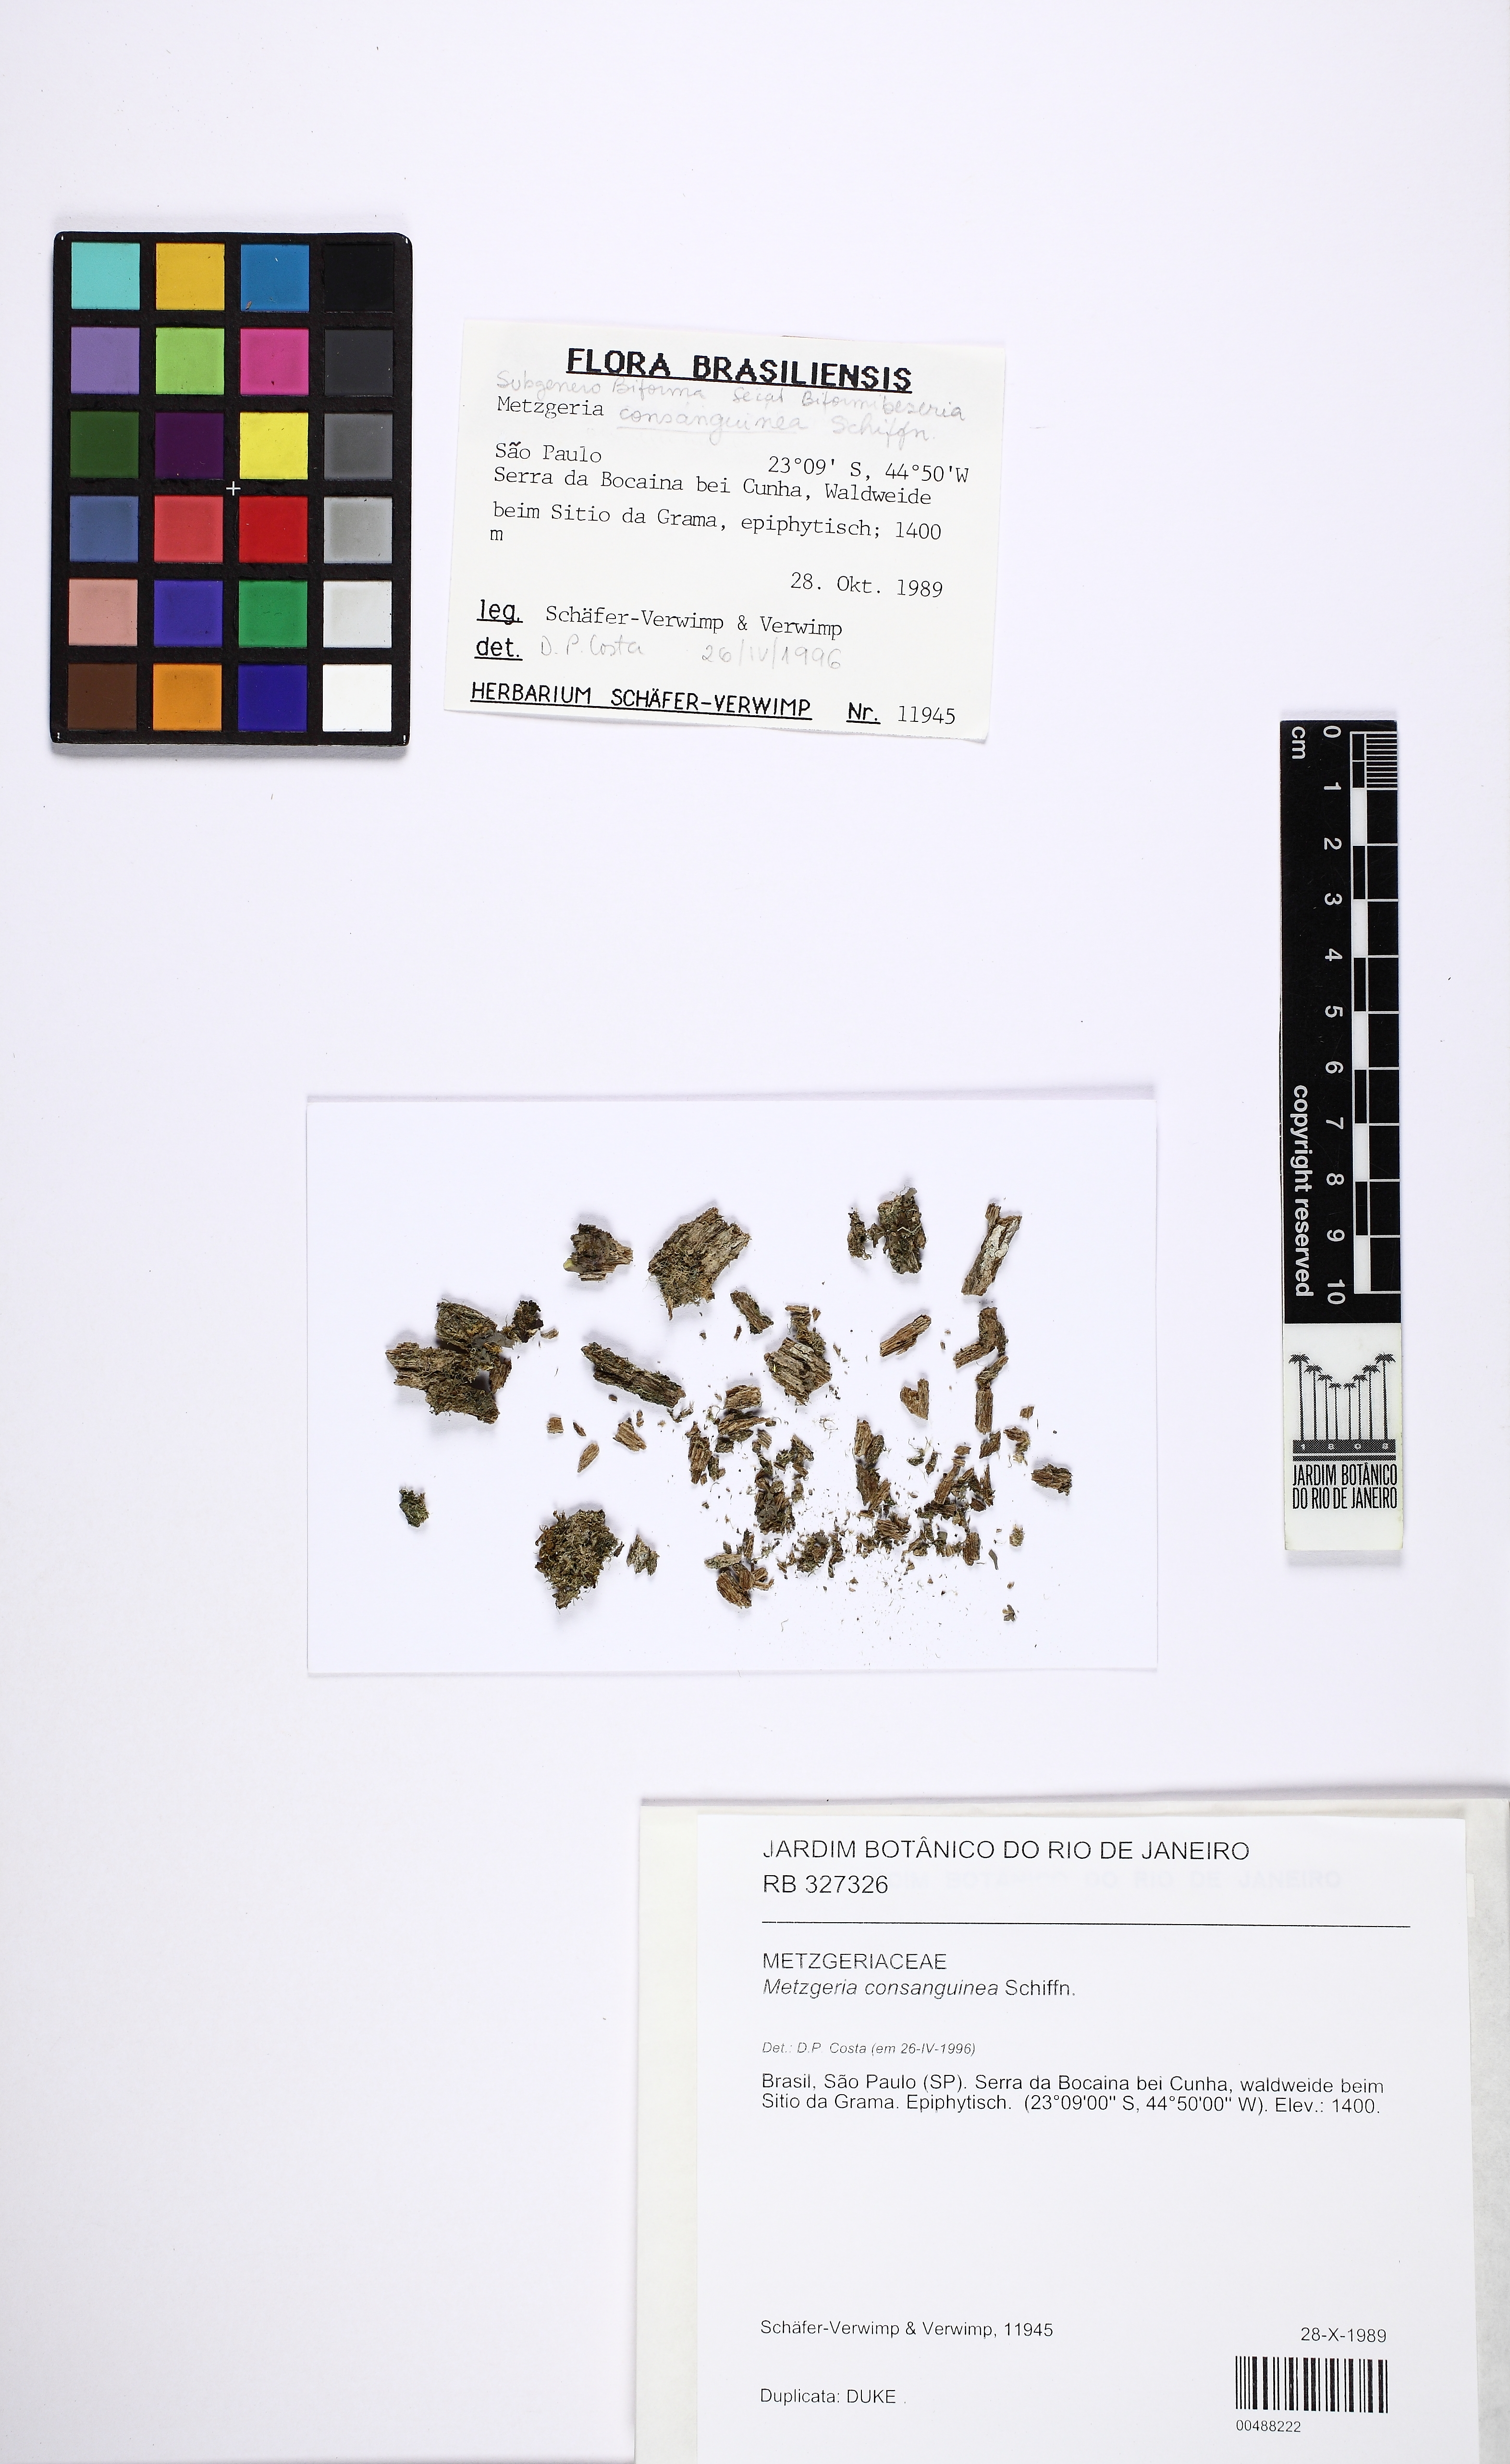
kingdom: Plantae
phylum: Marchantiophyta
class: Jungermanniopsida
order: Metzgeriales
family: Metzgeriaceae
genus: Metzgeria
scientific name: Metzgeria consanguinea
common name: Whiskered veilwort
